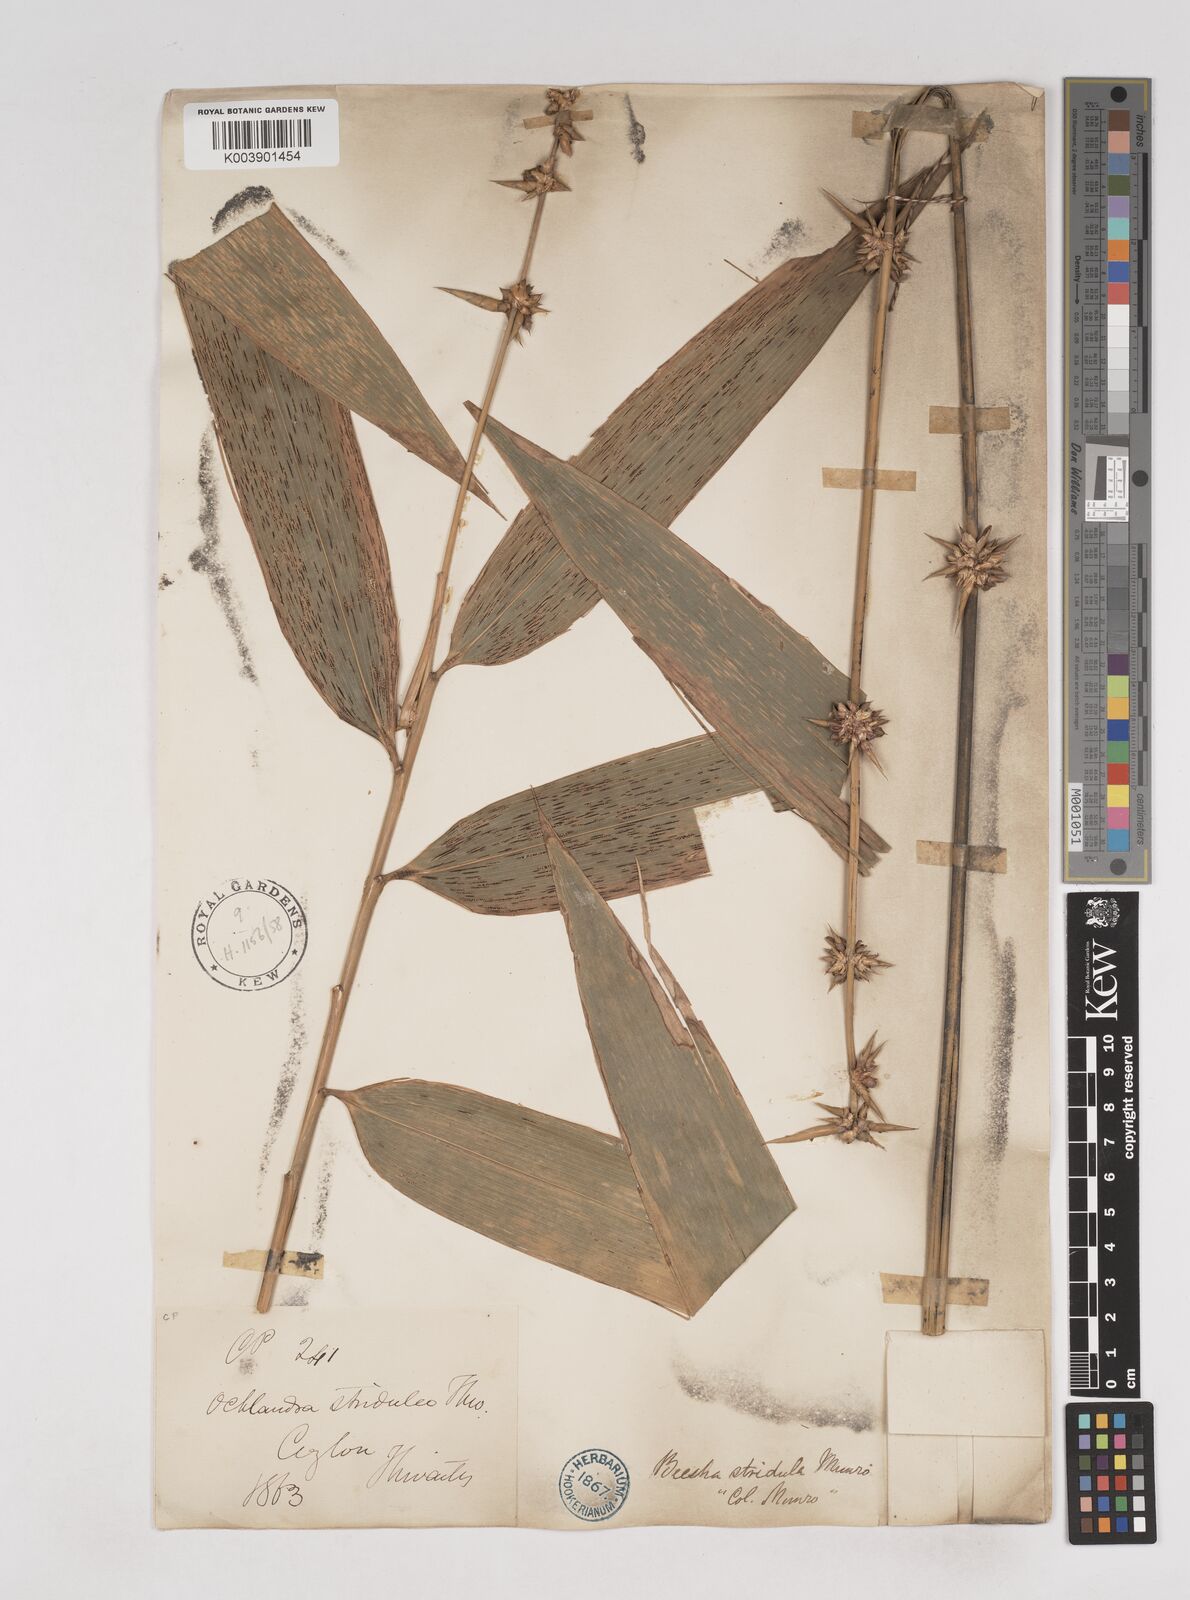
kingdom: Plantae
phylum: Tracheophyta
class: Liliopsida
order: Poales
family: Poaceae
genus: Ochlandra
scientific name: Ochlandra stridula
